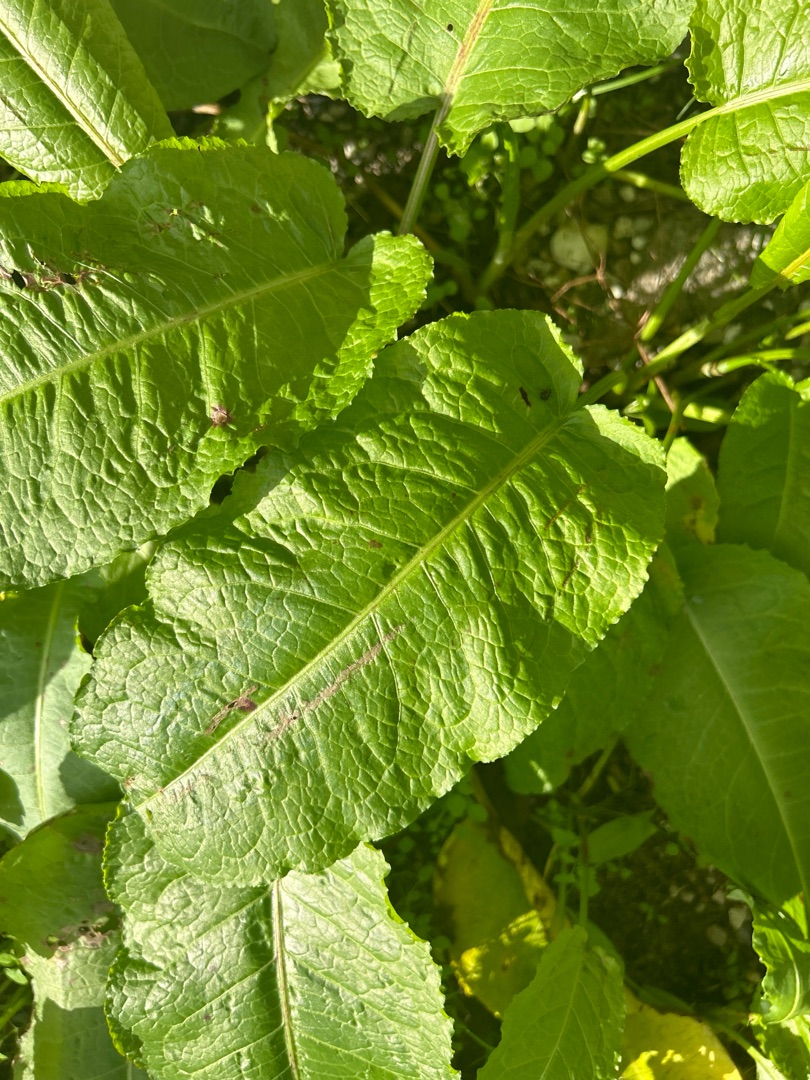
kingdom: Plantae
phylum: Tracheophyta
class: Magnoliopsida
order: Caryophyllales
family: Polygonaceae
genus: Rumex
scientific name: Rumex obtusifolius
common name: Butbladet skræppe
